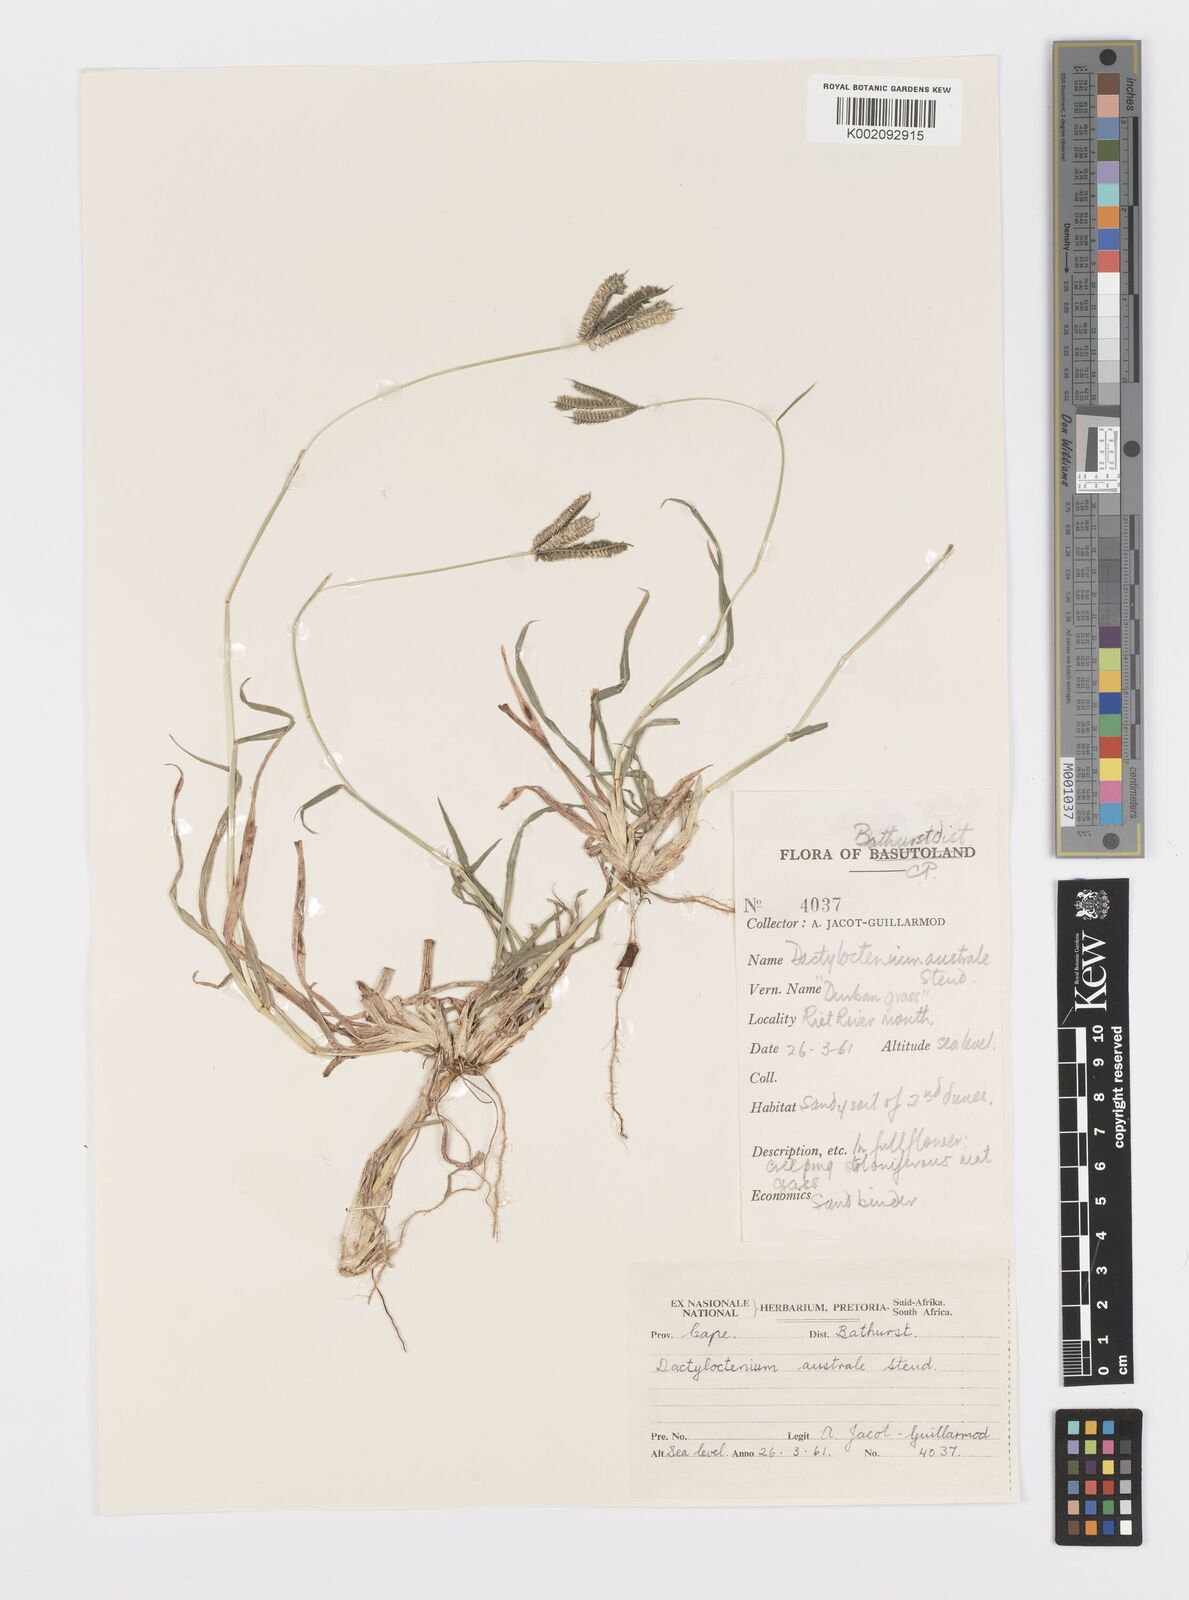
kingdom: Plantae
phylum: Tracheophyta
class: Liliopsida
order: Poales
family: Poaceae
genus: Dactyloctenium
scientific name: Dactyloctenium australe
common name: Durban grass
